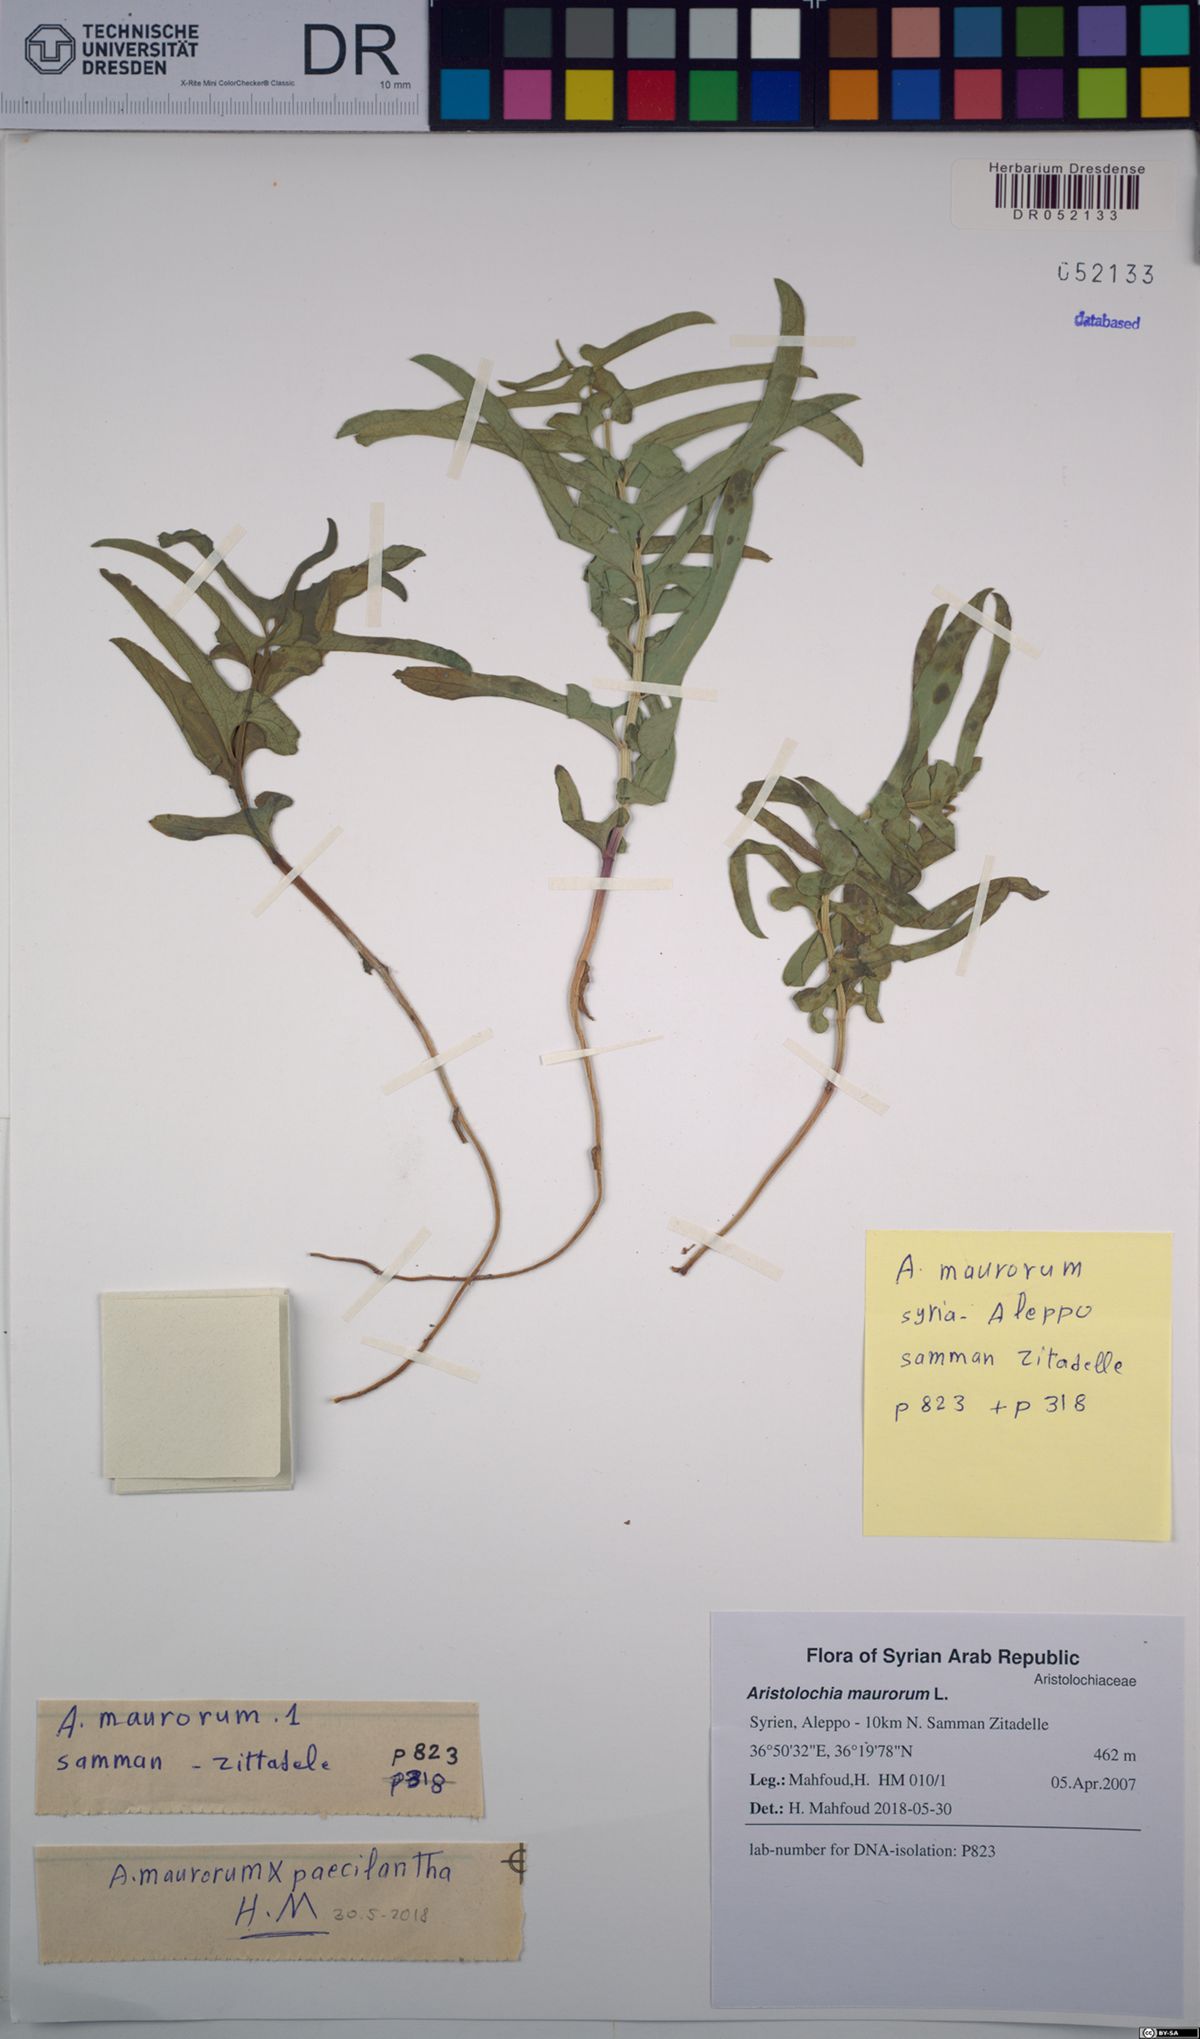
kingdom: Plantae
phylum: Tracheophyta
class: Magnoliopsida
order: Piperales
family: Aristolochiaceae
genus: Aristolochia
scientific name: Aristolochia maurorum
